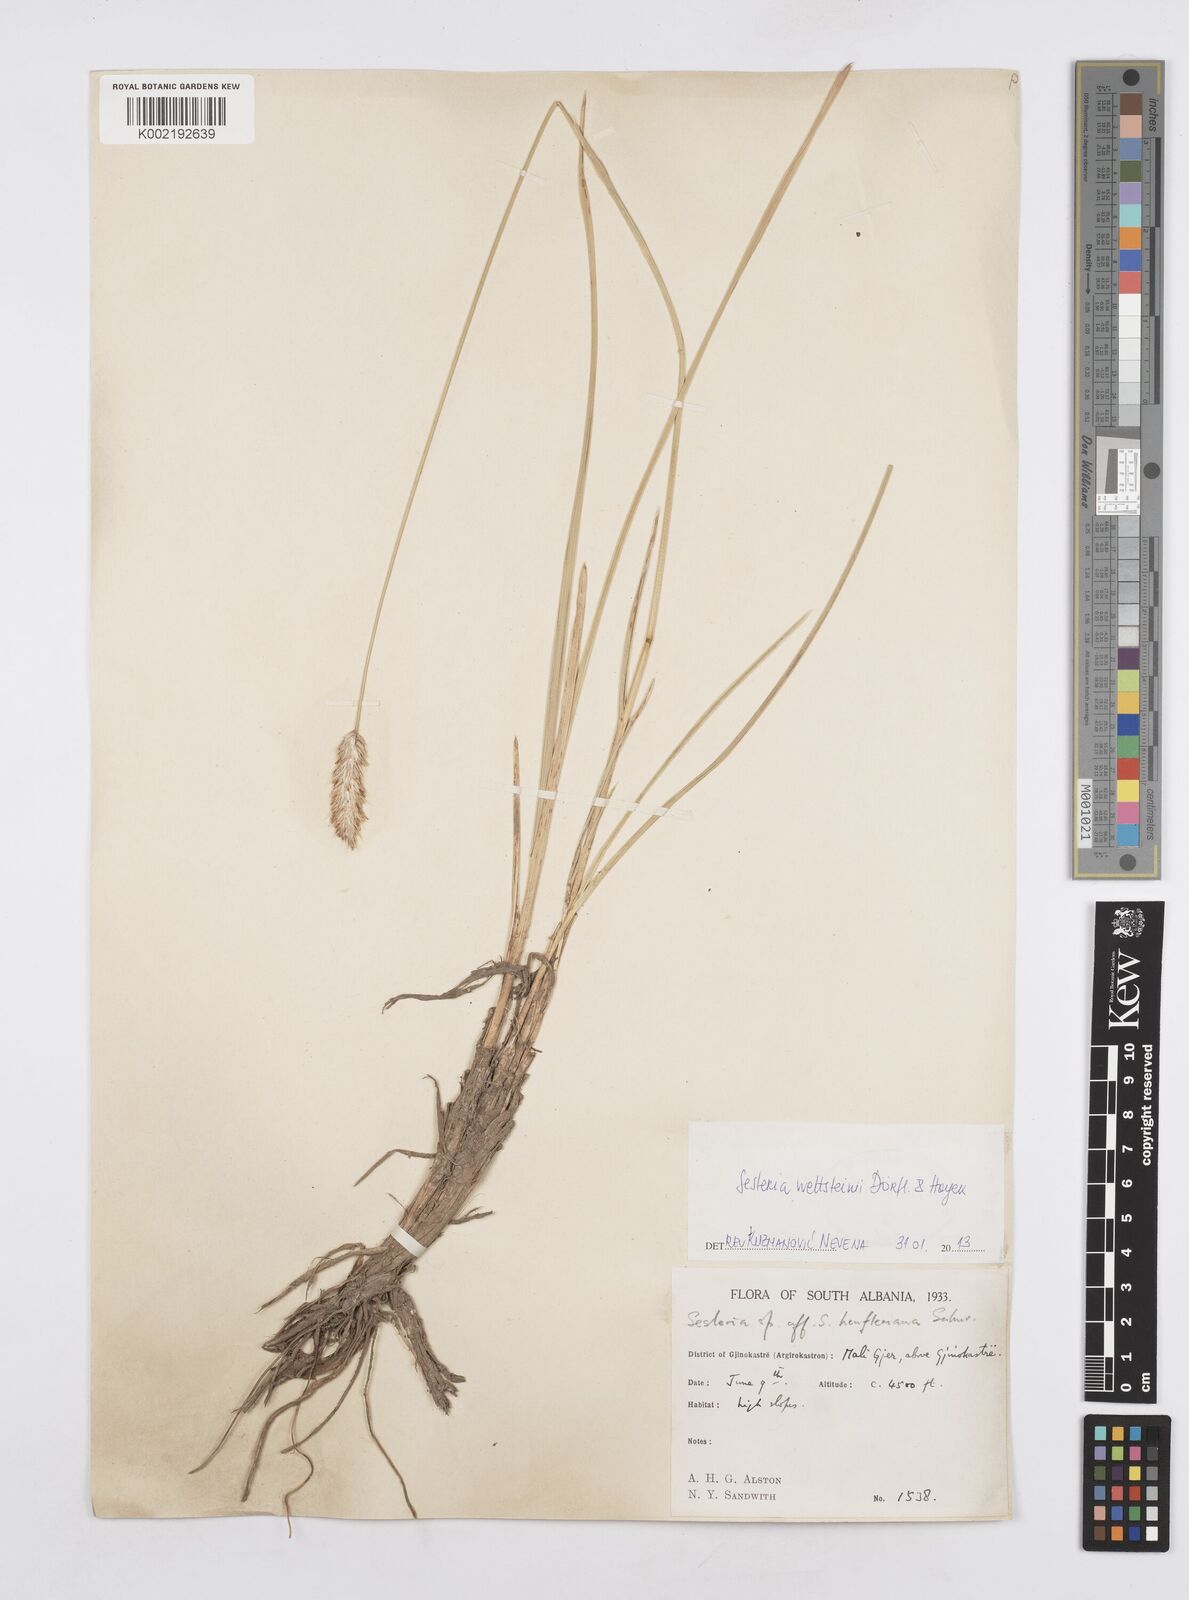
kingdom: Plantae
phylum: Tracheophyta
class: Liliopsida
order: Poales
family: Poaceae
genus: Sesleria
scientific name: Sesleria wettsteinii
